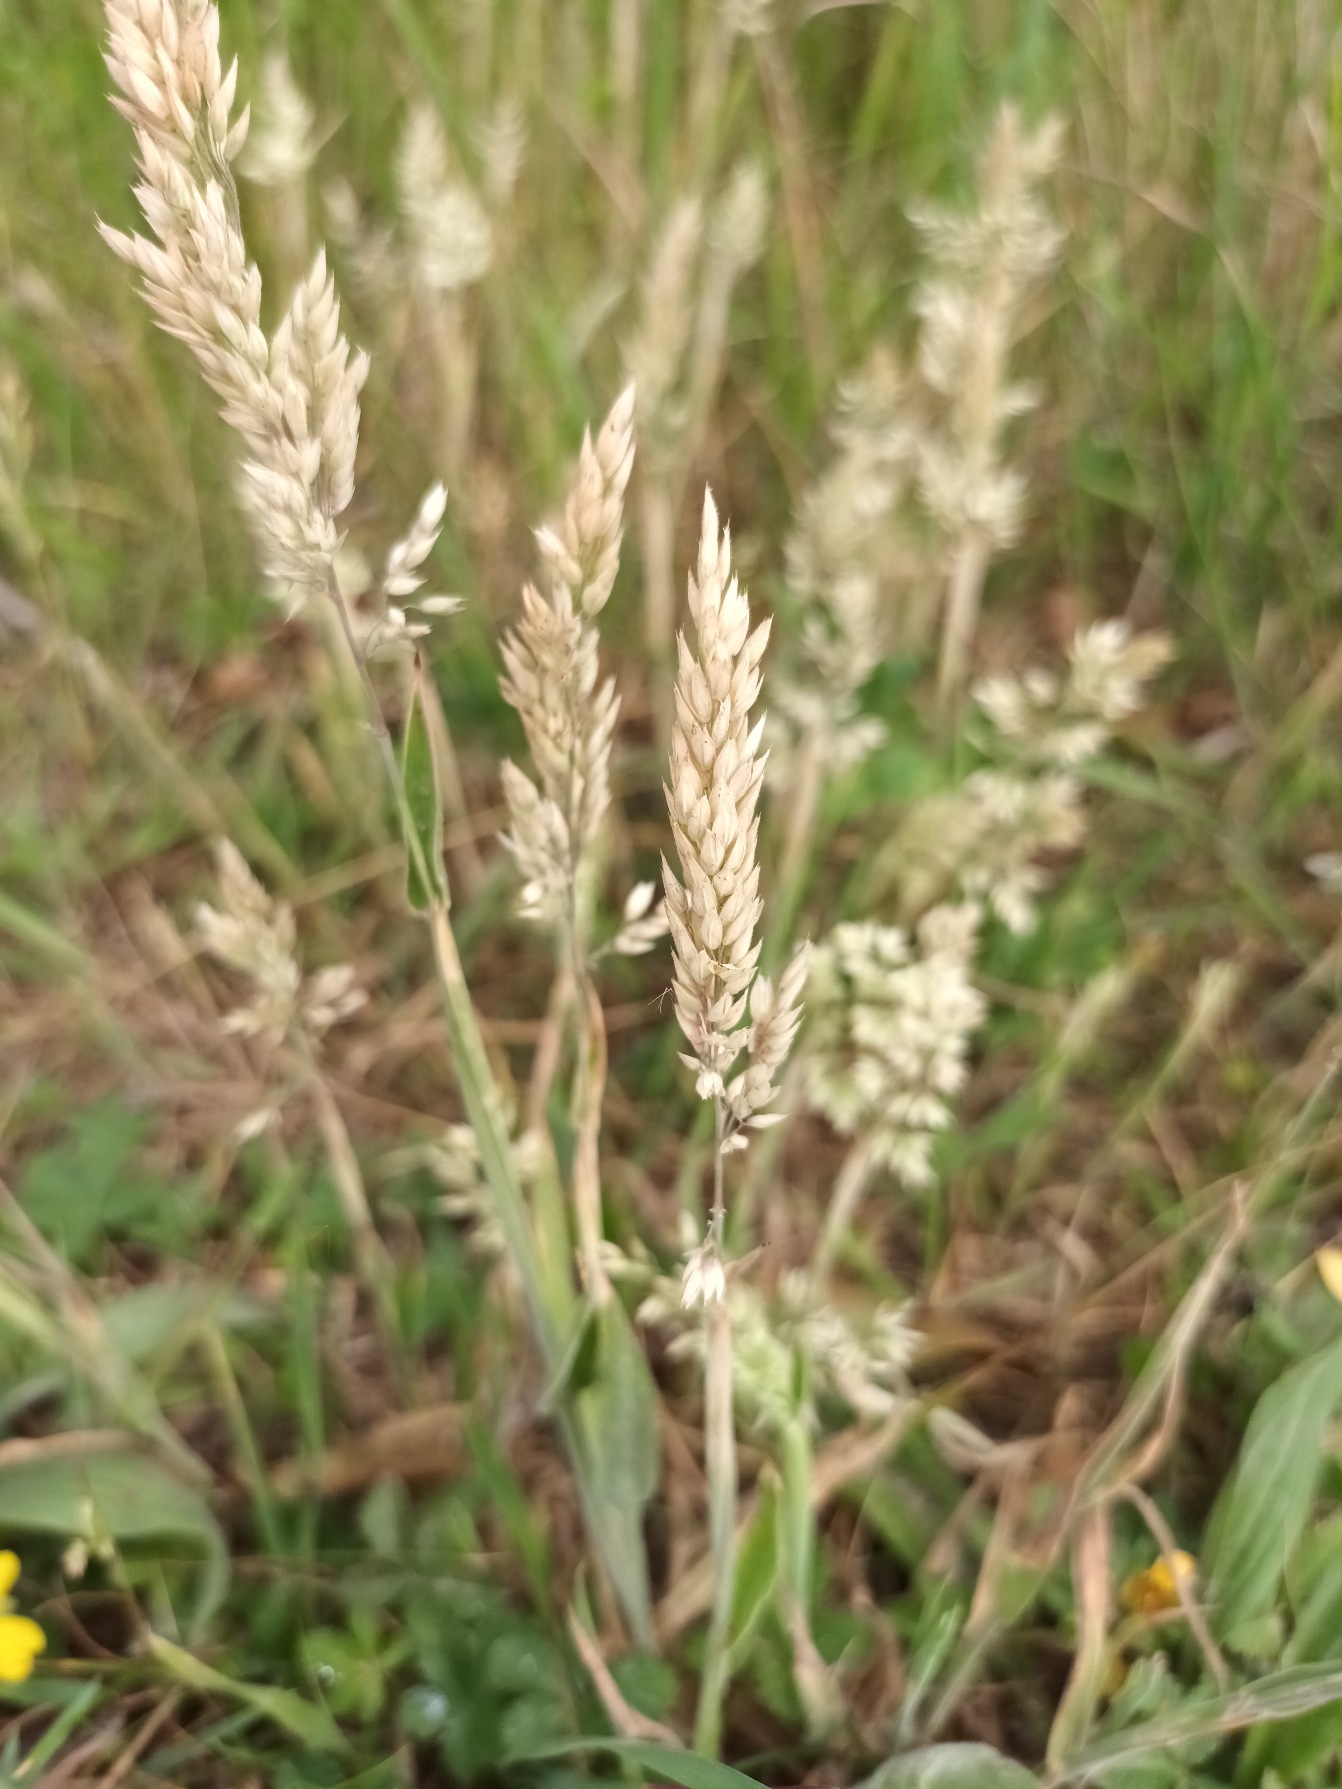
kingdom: Plantae
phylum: Tracheophyta
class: Liliopsida
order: Poales
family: Poaceae
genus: Holcus
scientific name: Holcus lanatus
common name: Fløjlsgræs
